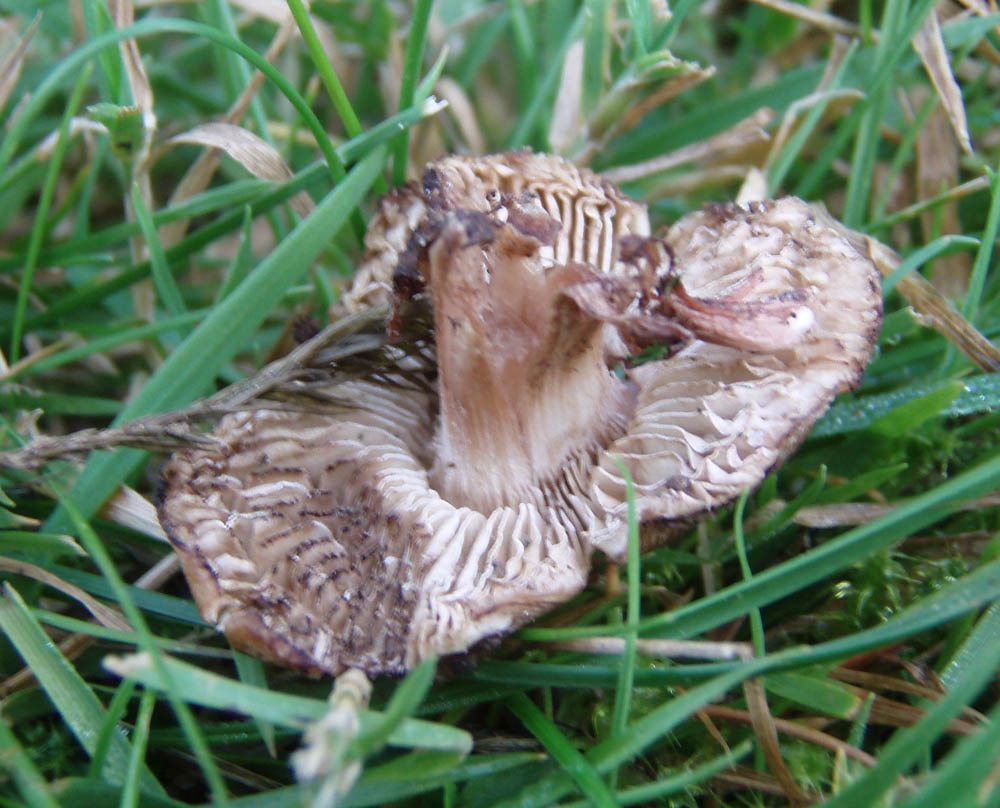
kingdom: Fungi
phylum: Basidiomycota
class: Agaricomycetes
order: Agaricales
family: Inocybaceae
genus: Inosperma
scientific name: Inosperma adaequatum
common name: vinrød trævlhat
